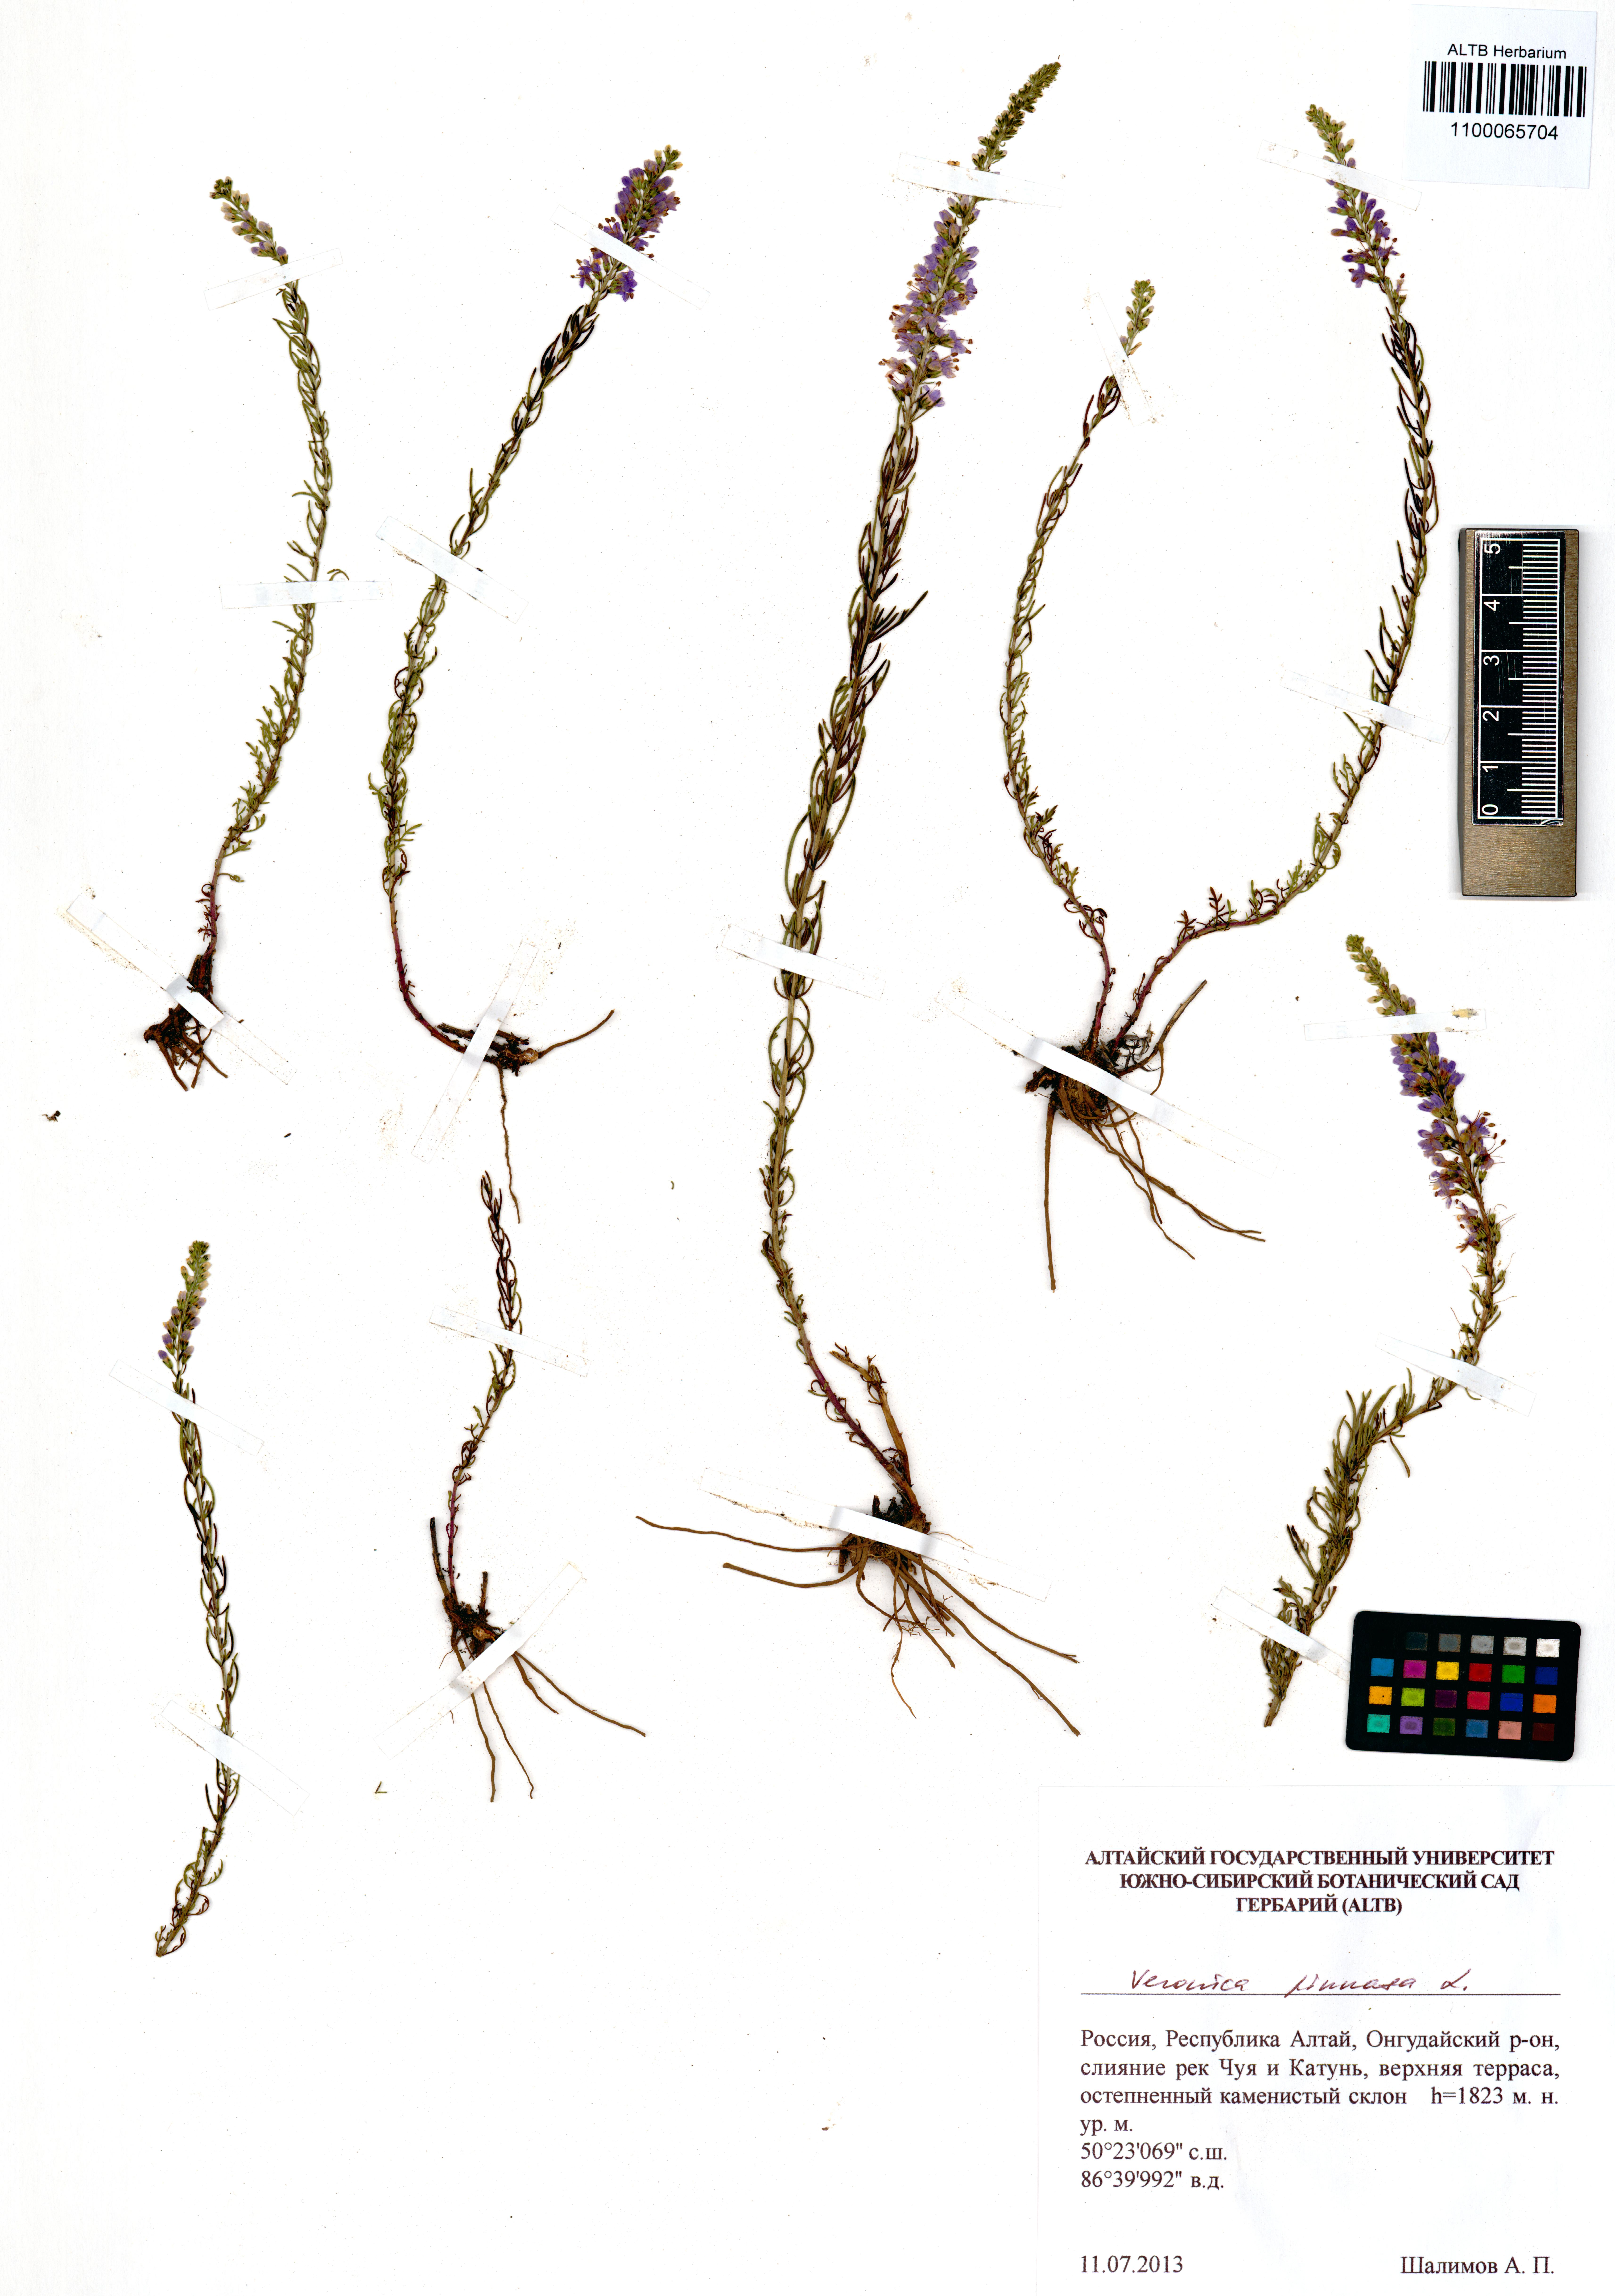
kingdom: Plantae
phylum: Tracheophyta
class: Magnoliopsida
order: Lamiales
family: Plantaginaceae
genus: Veronica
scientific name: Veronica pinnata
